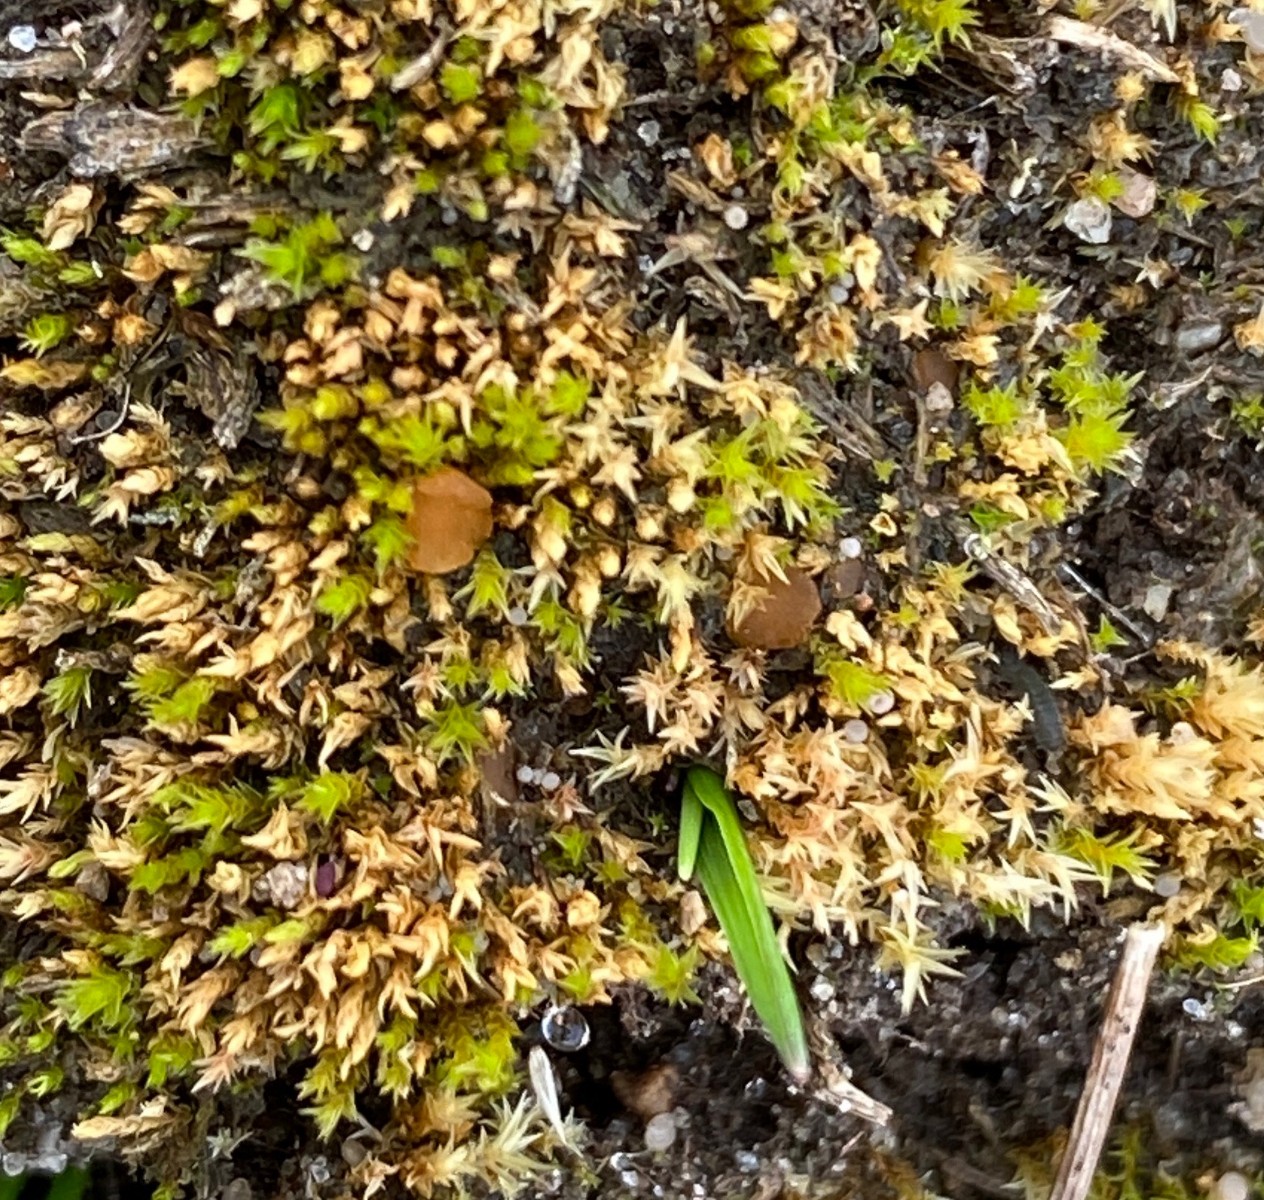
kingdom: Fungi
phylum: Ascomycota
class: Pezizomycetes
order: Pezizales
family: Pyronemataceae
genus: Octospora
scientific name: Octospora rustica
